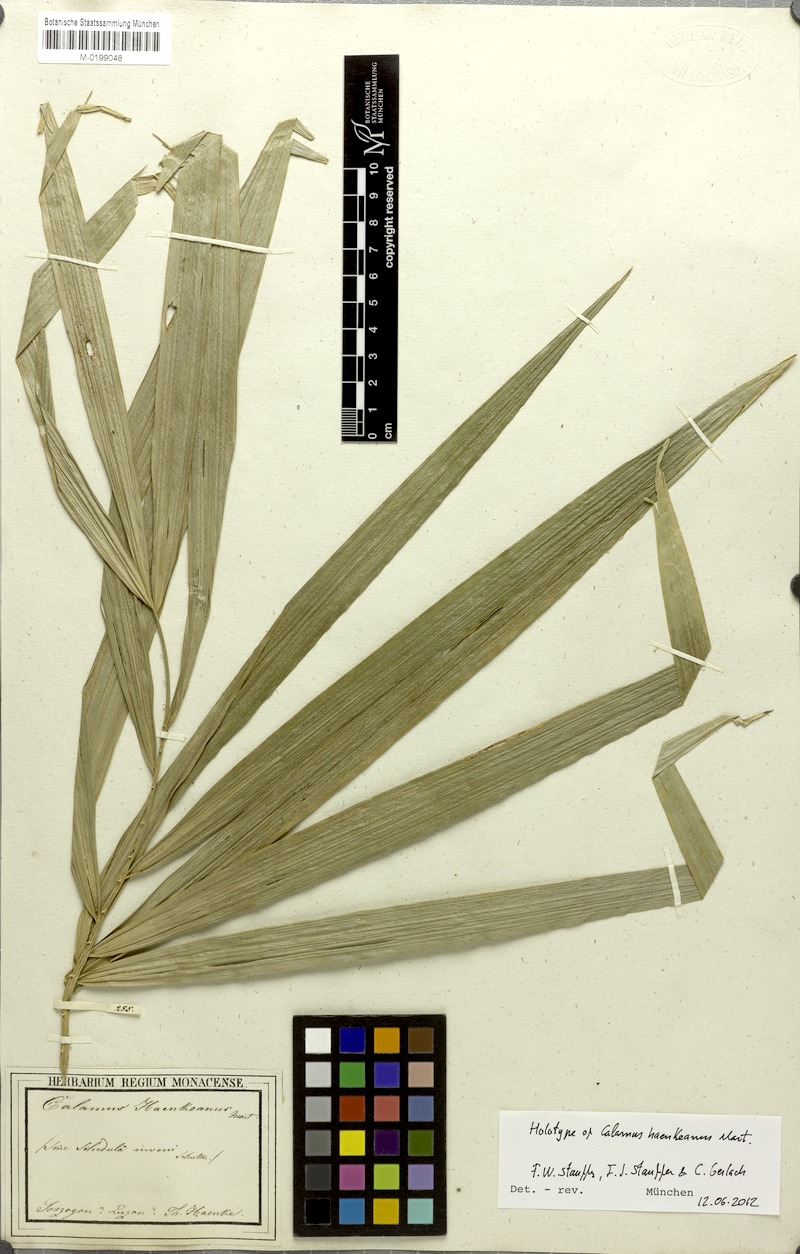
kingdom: Plantae
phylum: Tracheophyta
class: Liliopsida
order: Arecales
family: Arecaceae
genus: Calamus
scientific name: Calamus usitatus
